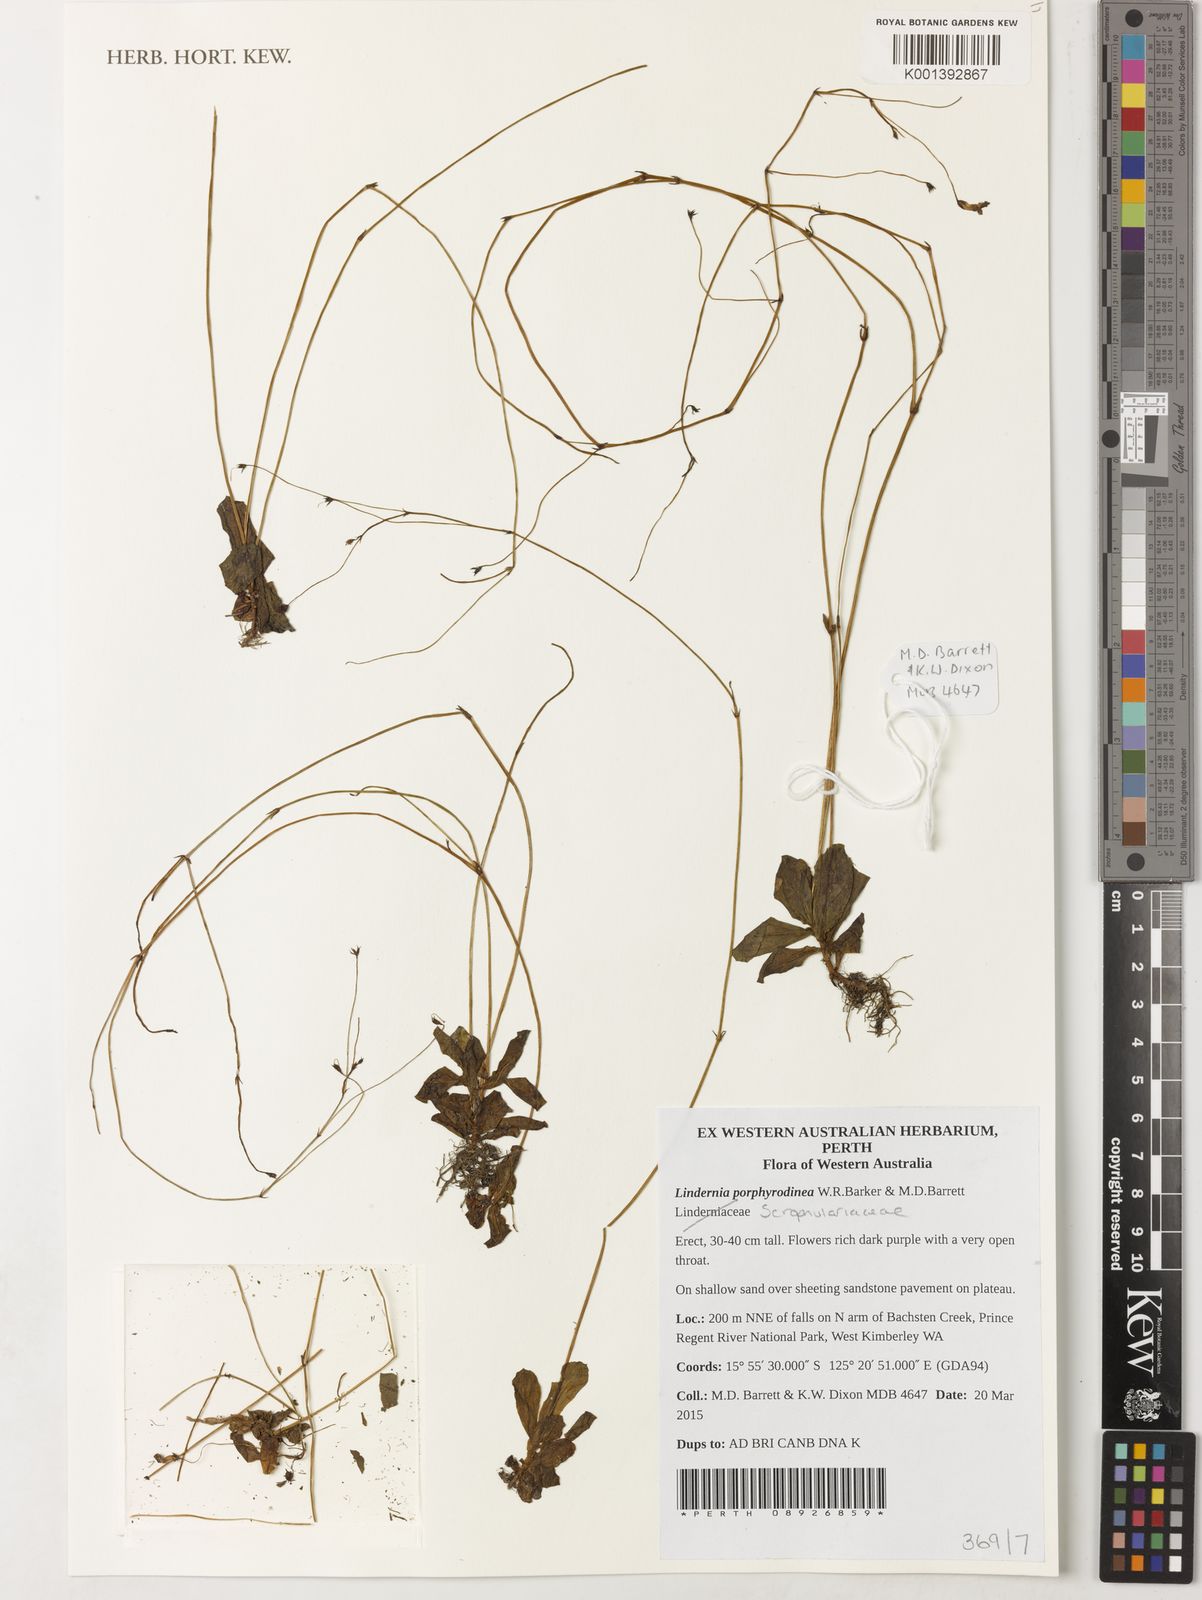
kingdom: Plantae
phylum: Tracheophyta
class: Magnoliopsida
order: Lamiales
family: Linderniaceae
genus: Lindernia
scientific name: Lindernia
